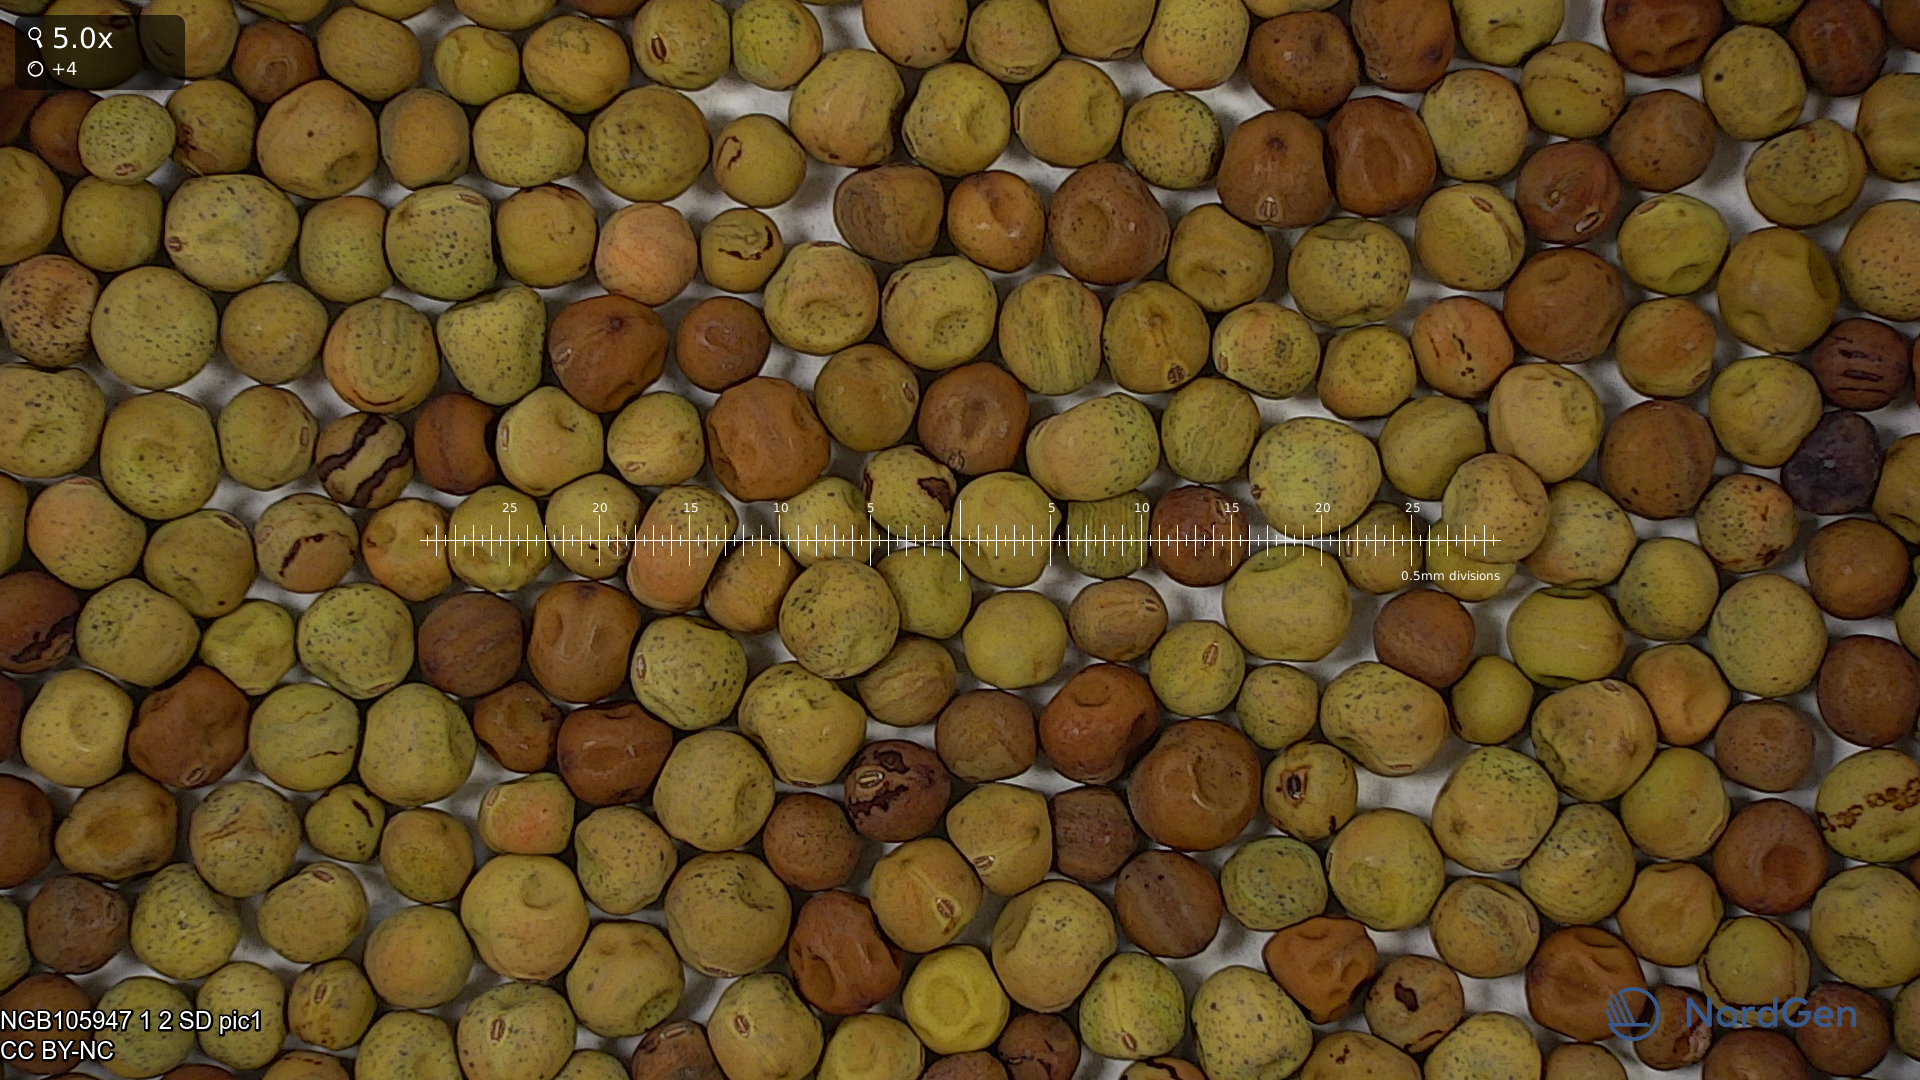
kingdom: Plantae
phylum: Tracheophyta
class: Magnoliopsida
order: Fabales
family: Fabaceae
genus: Lathyrus
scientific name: Lathyrus oleraceus
